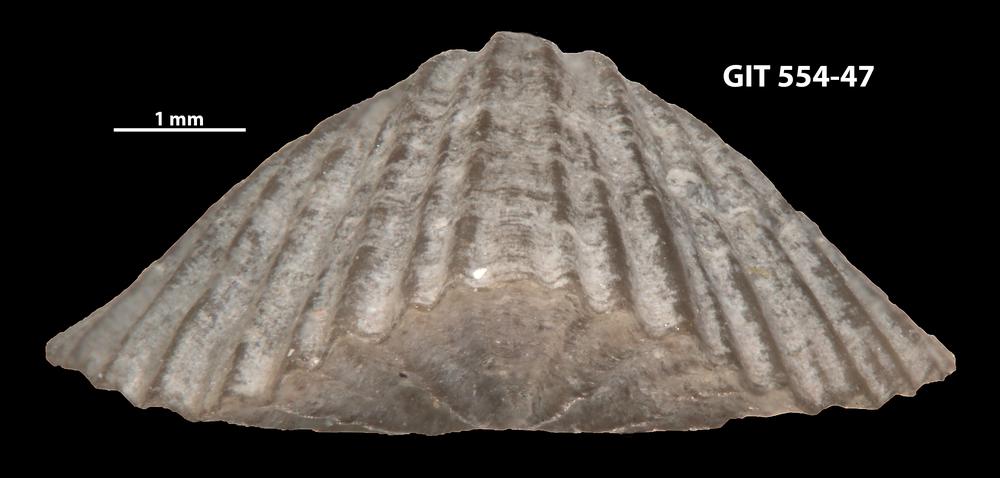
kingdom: Animalia
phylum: Brachiopoda
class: Rhynchonellata
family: Skenidiidae
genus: Skenidioides
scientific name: Skenidioides hymiri
